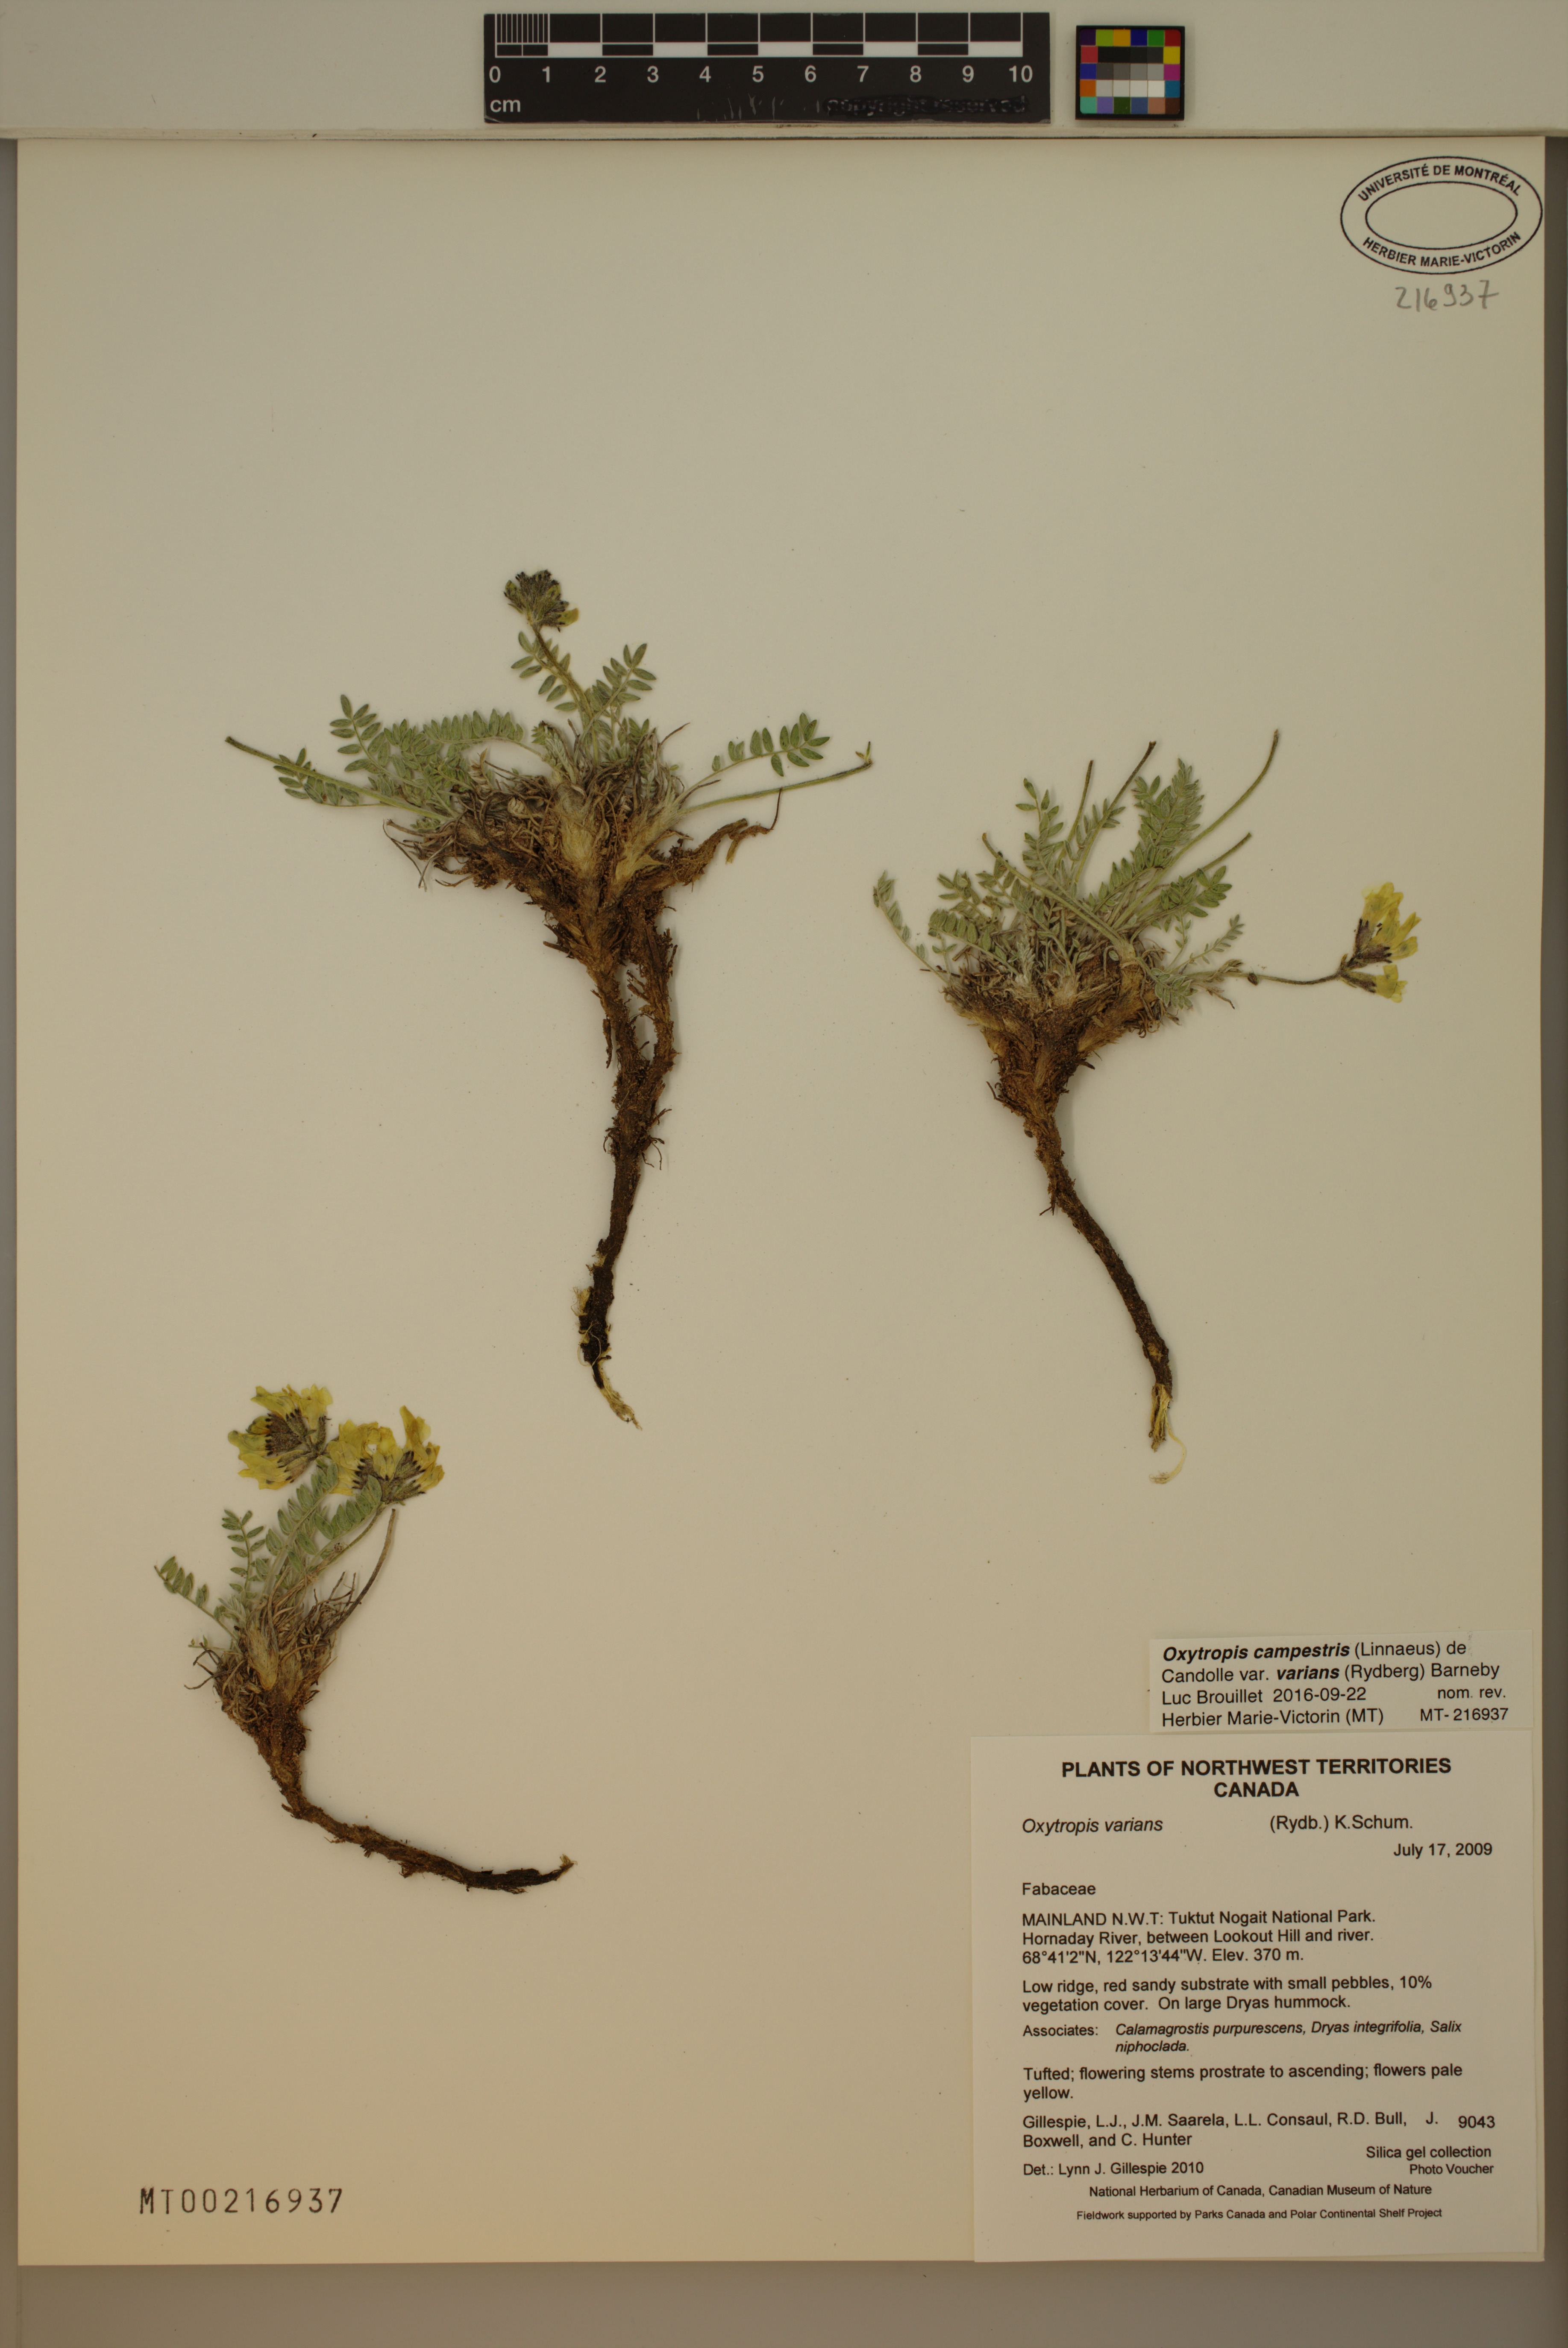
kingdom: Plantae
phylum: Tracheophyta
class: Magnoliopsida
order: Fabales
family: Fabaceae
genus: Oxytropis
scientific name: Oxytropis campestris
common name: Field locoweed
